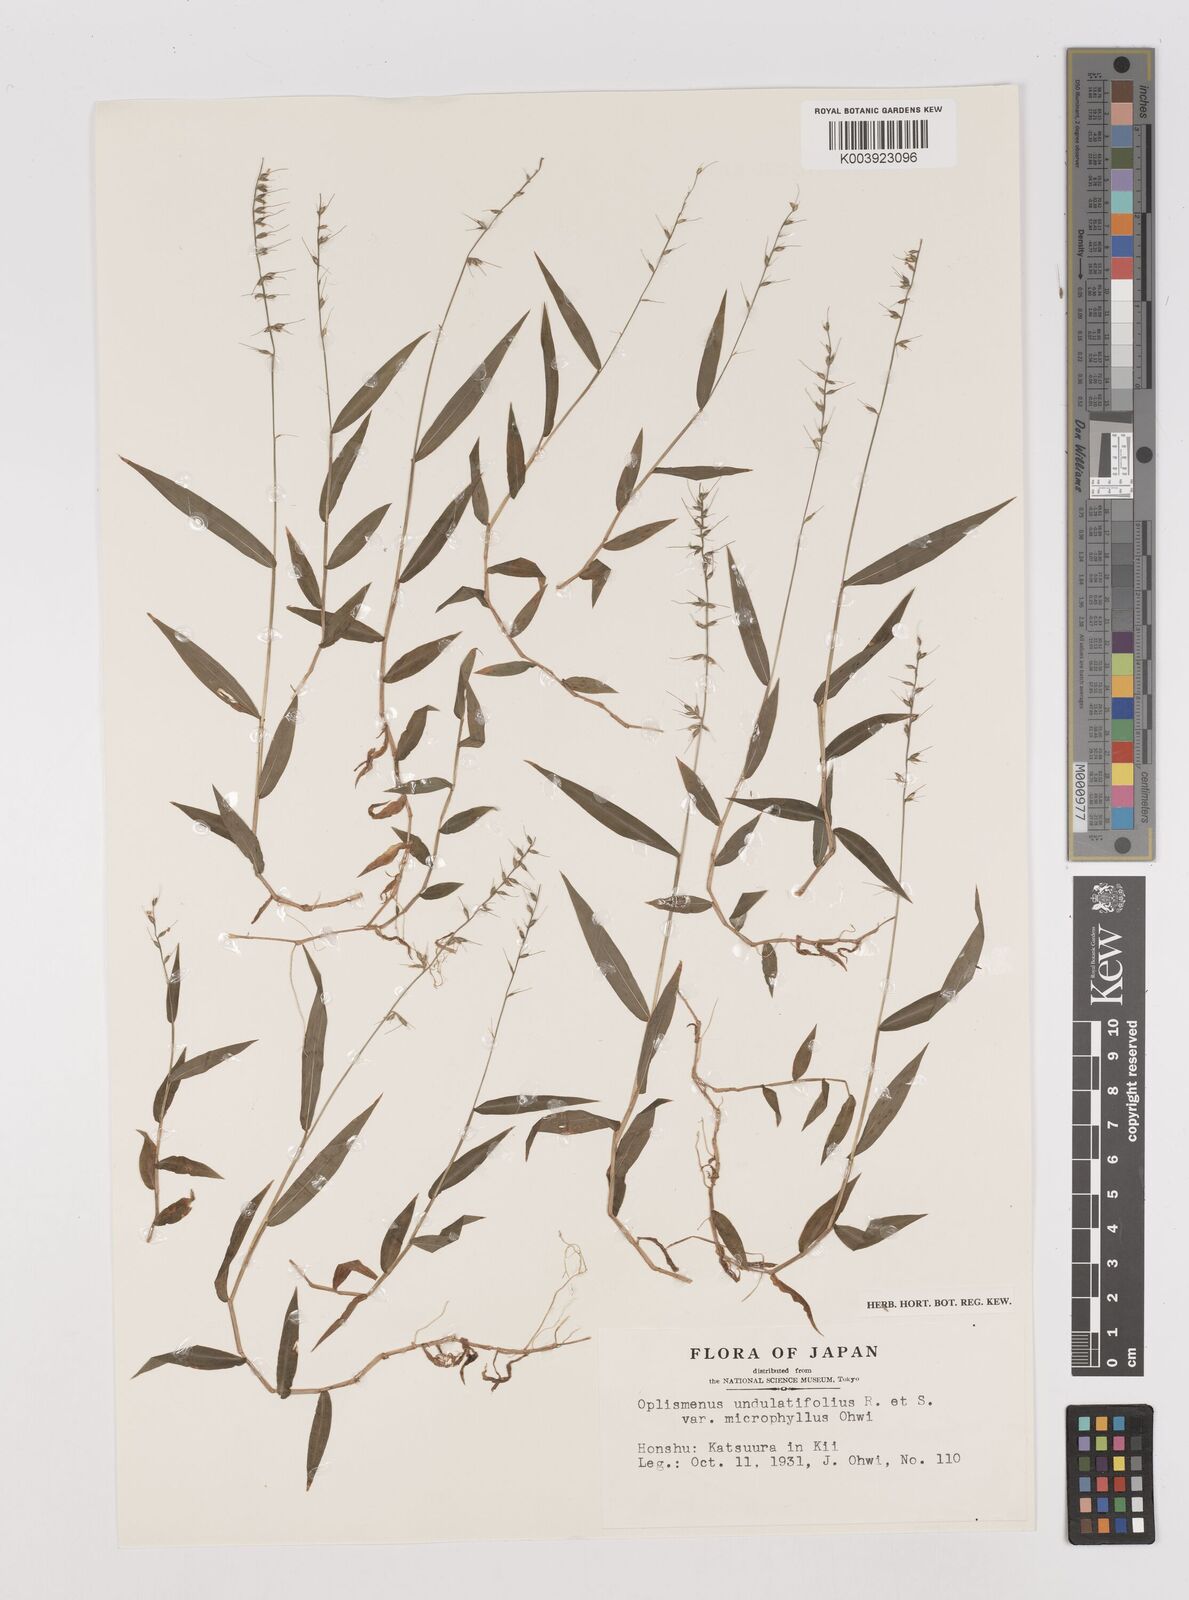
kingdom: Plantae
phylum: Tracheophyta
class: Liliopsida
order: Poales
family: Poaceae
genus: Oplismenus
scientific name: Oplismenus undulatifolius
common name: Wavyleaf basketgrass
